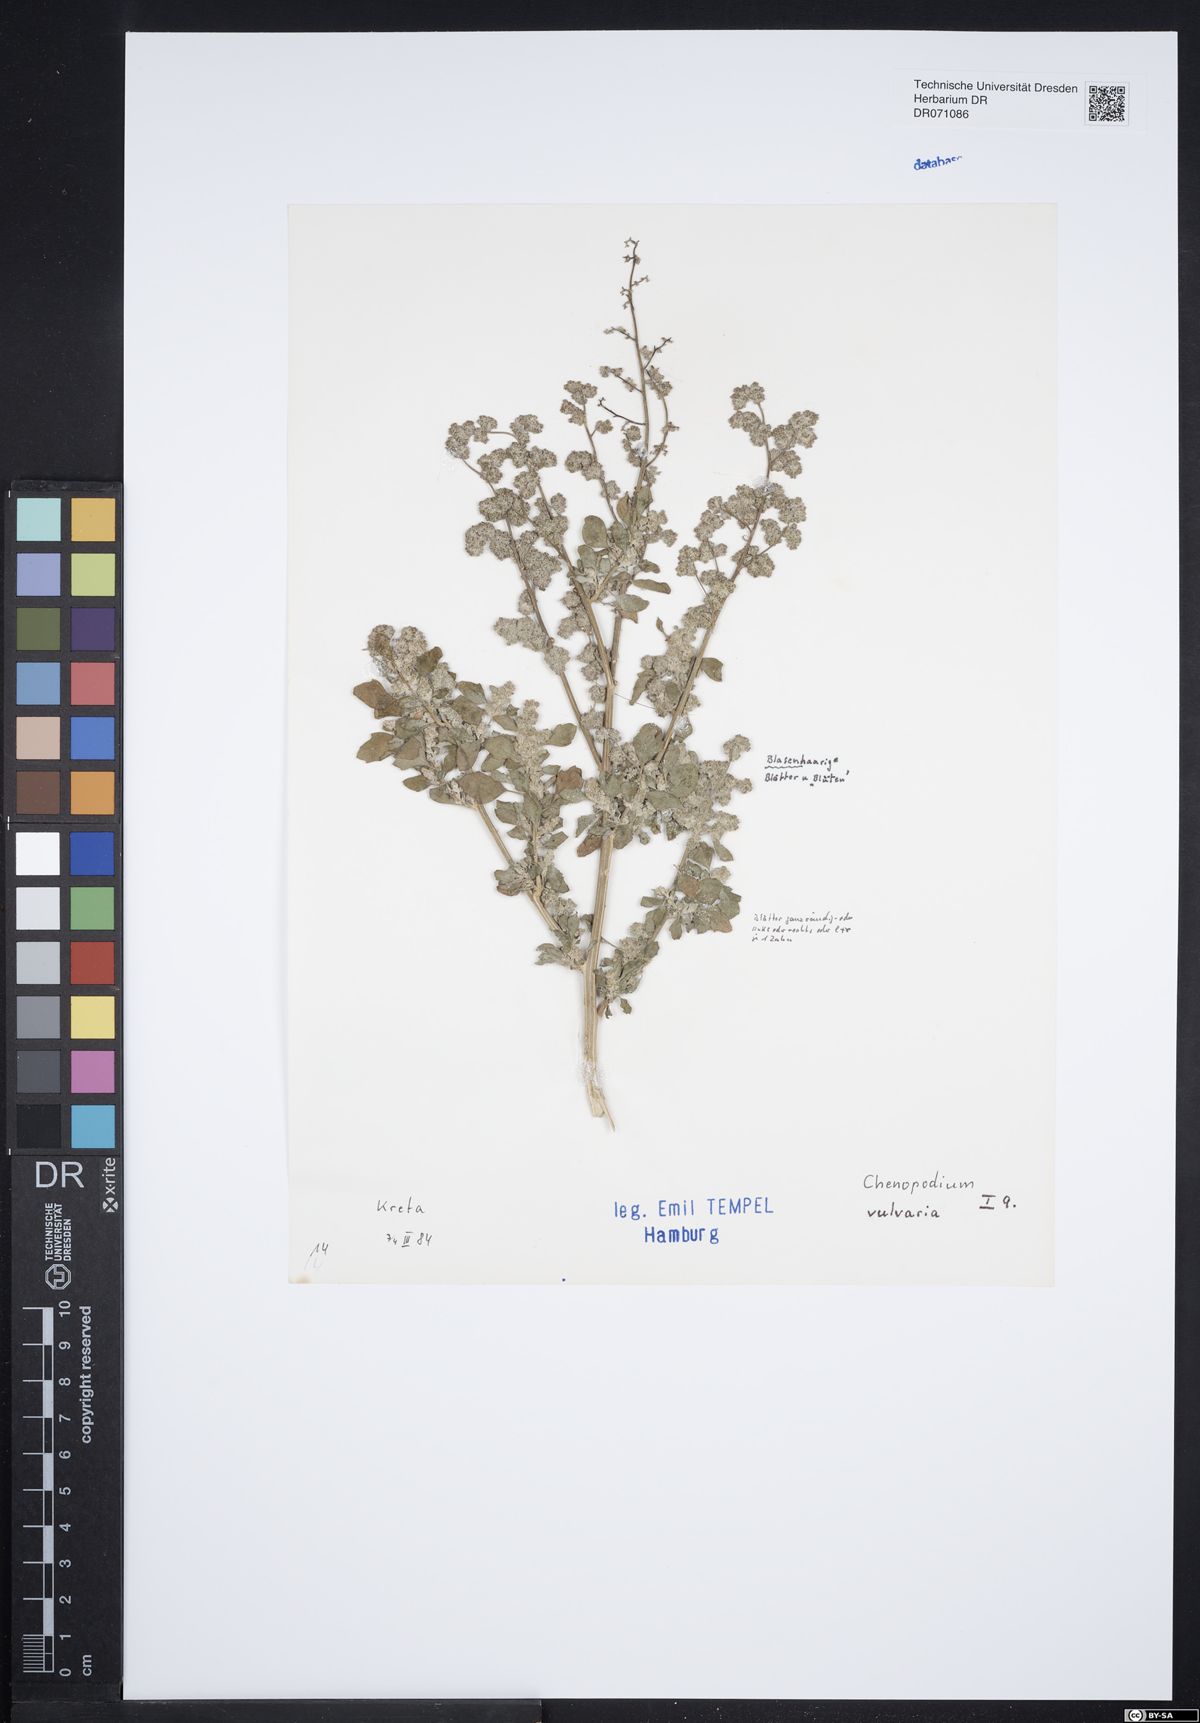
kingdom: Plantae
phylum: Tracheophyta
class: Magnoliopsida
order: Caryophyllales
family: Amaranthaceae
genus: Chenopodium
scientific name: Chenopodium vulvaria
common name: Stinking goosefoot
